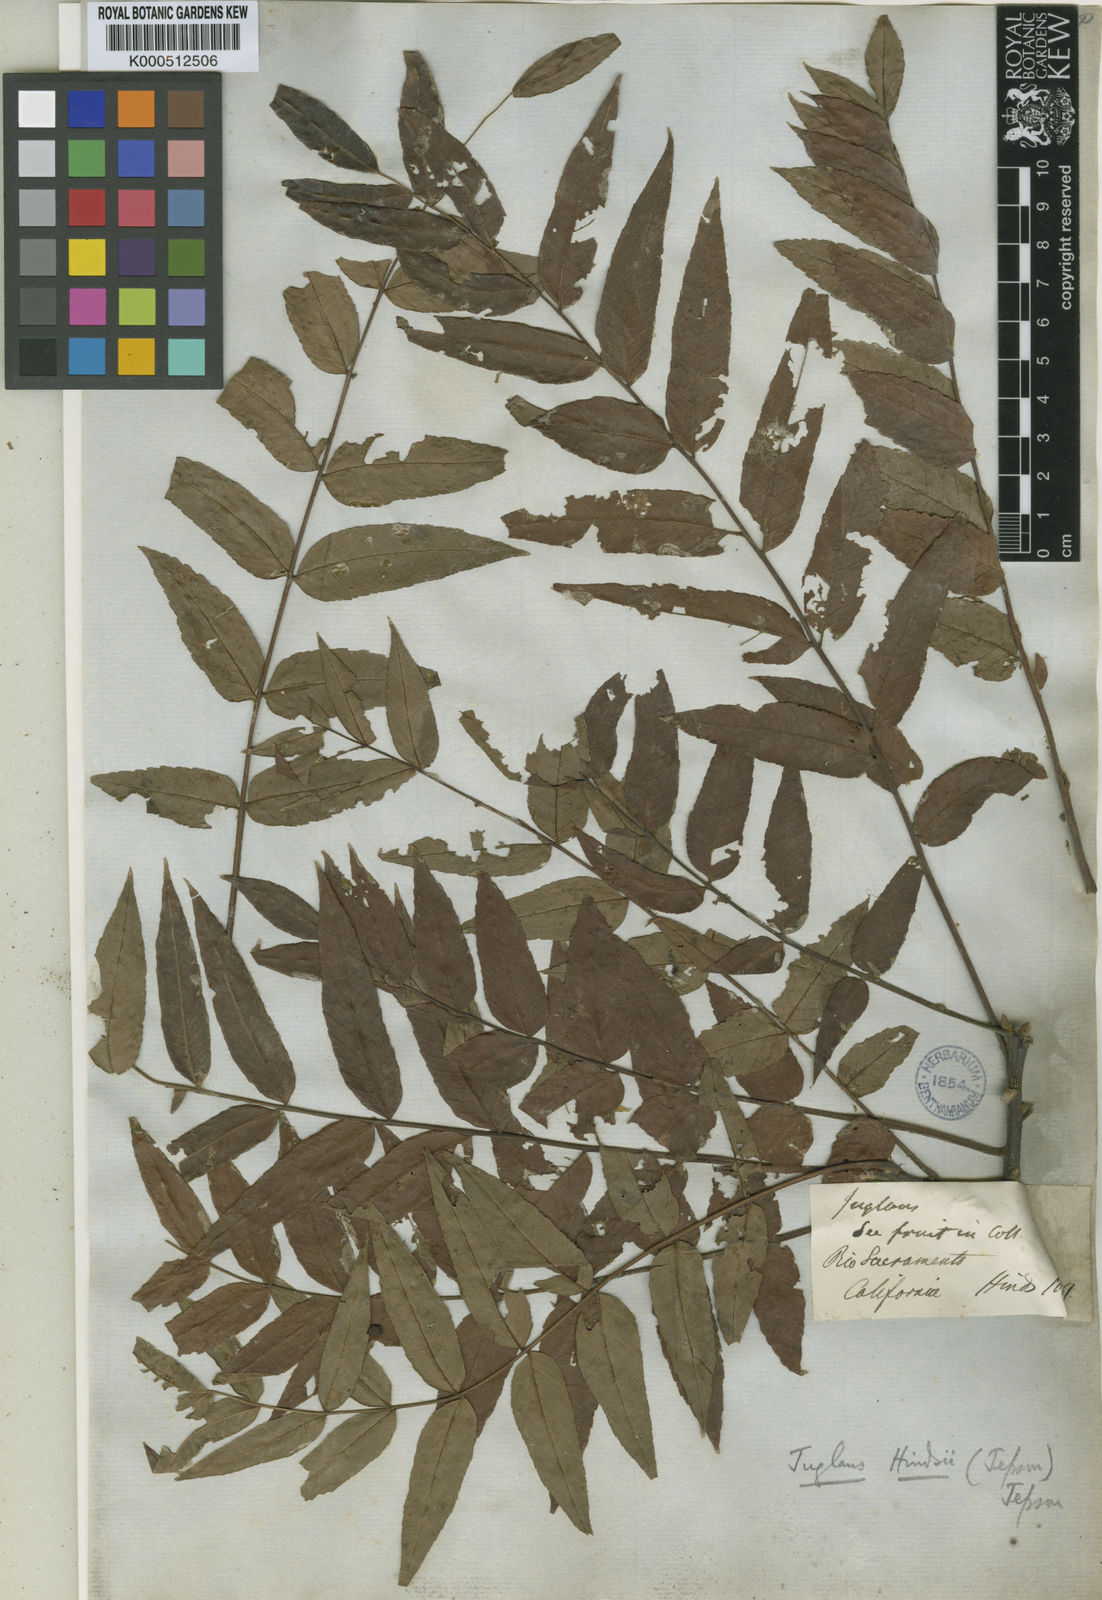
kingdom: Plantae
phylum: Tracheophyta
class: Magnoliopsida
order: Fagales
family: Juglandaceae
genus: Juglans
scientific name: Juglans hindsii
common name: Northern california black walnut
